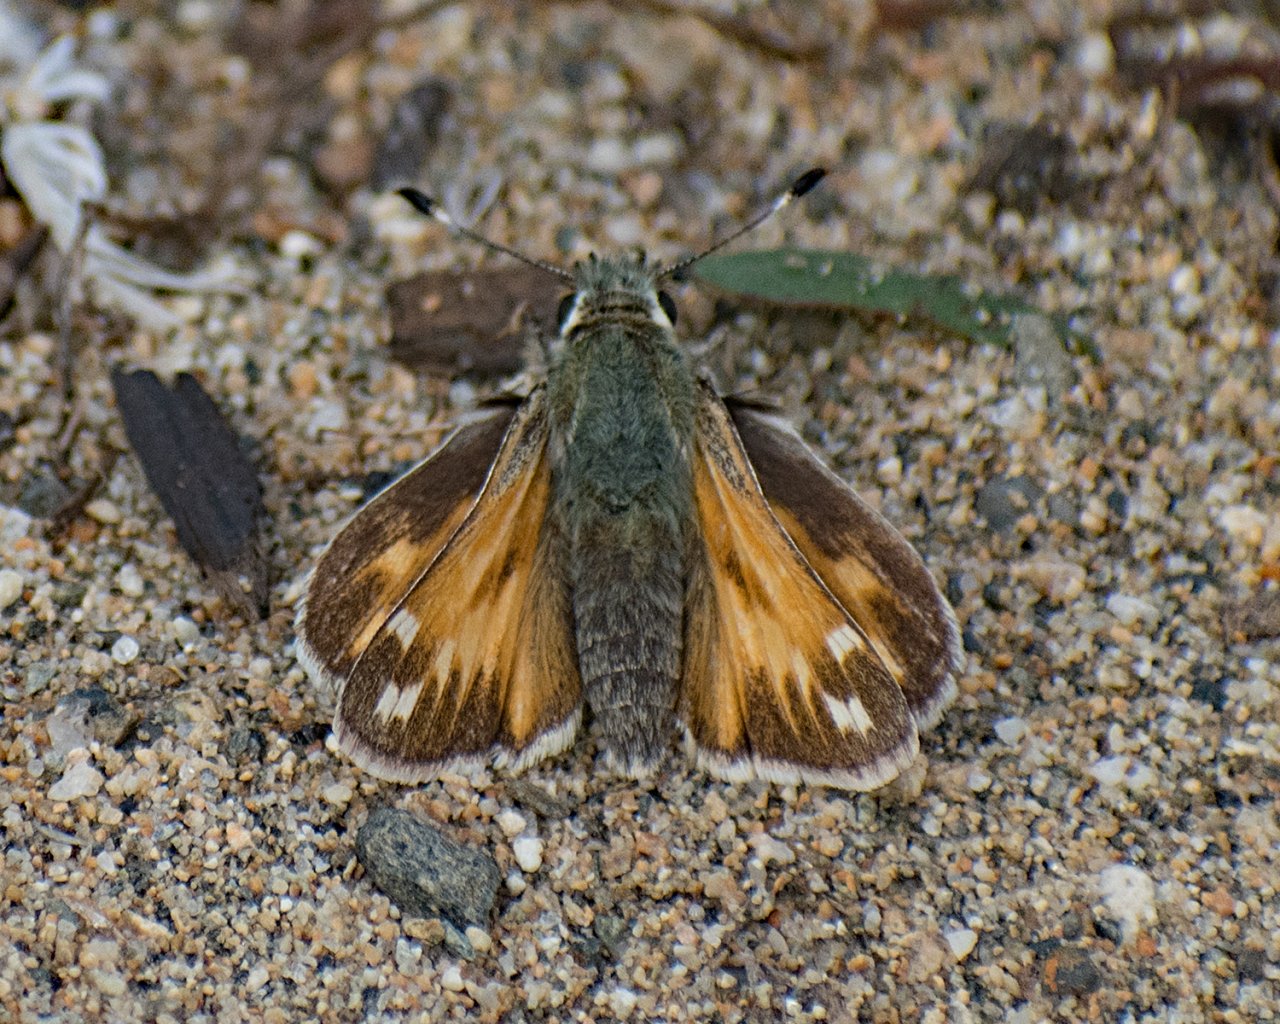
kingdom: Animalia
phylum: Arthropoda
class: Insecta
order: Lepidoptera
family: Hesperiidae
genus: Hesperia
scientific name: Hesperia juba
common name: Juba Skipper
